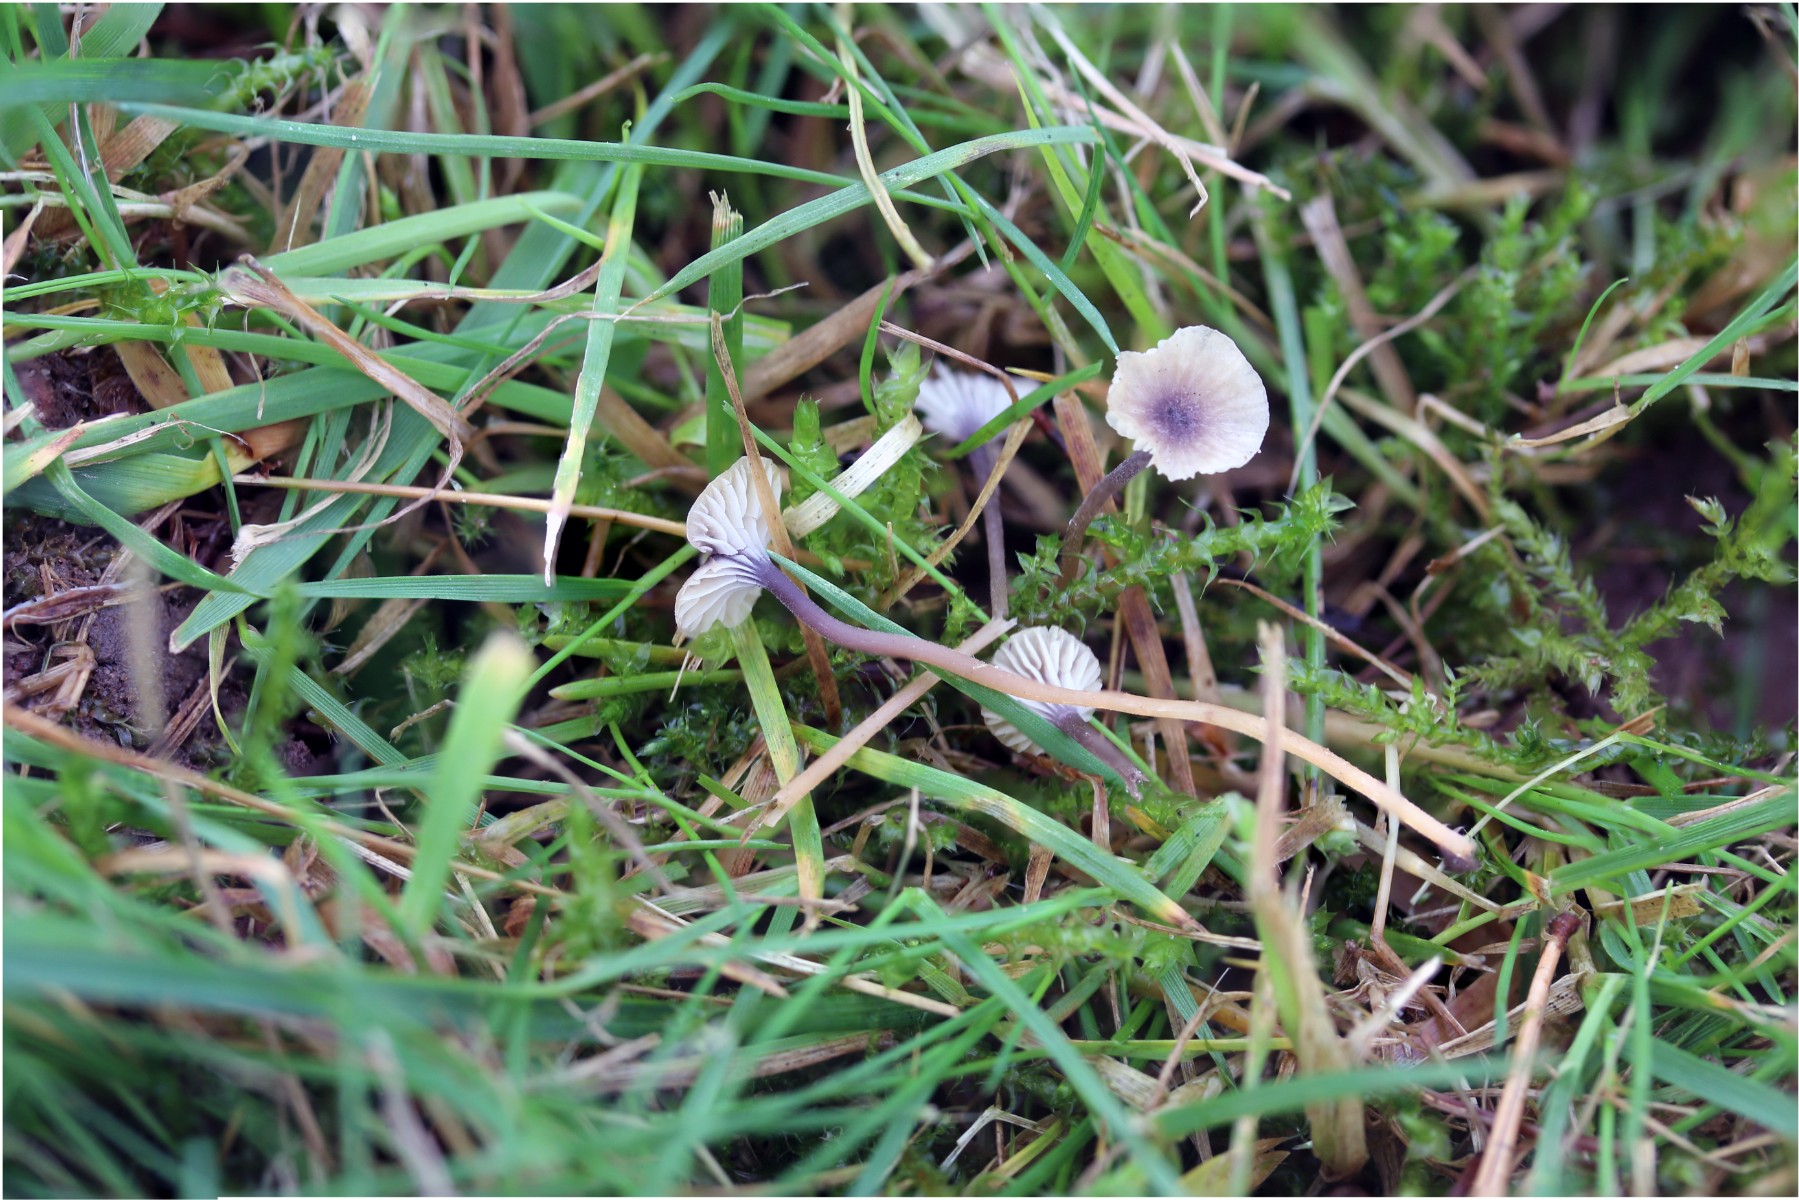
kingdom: Fungi
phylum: Basidiomycota
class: Agaricomycetes
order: Hymenochaetales
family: Rickenellaceae
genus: Rickenella
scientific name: Rickenella swartzii
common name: finstokket mosnavlehat
